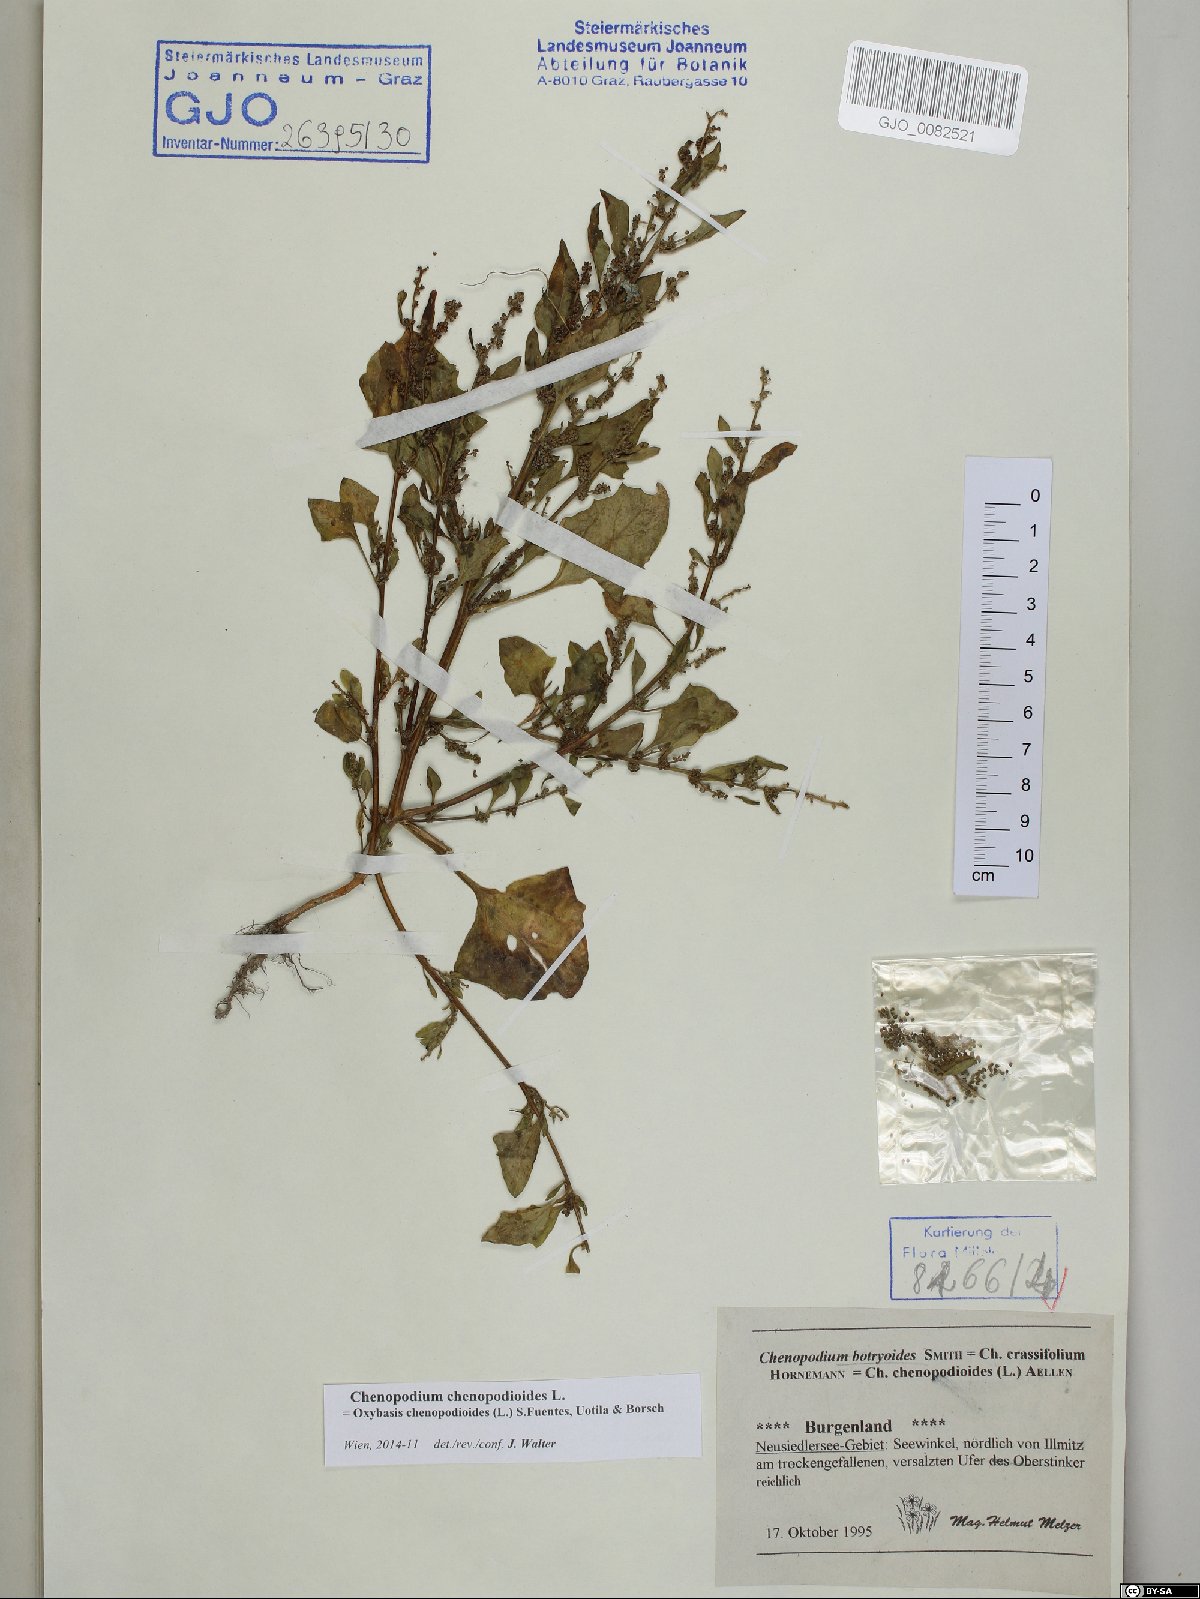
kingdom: Plantae
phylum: Tracheophyta
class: Magnoliopsida
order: Caryophyllales
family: Amaranthaceae
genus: Oxybasis
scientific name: Oxybasis chenopodioides
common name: Saltmarsh goosefoot
